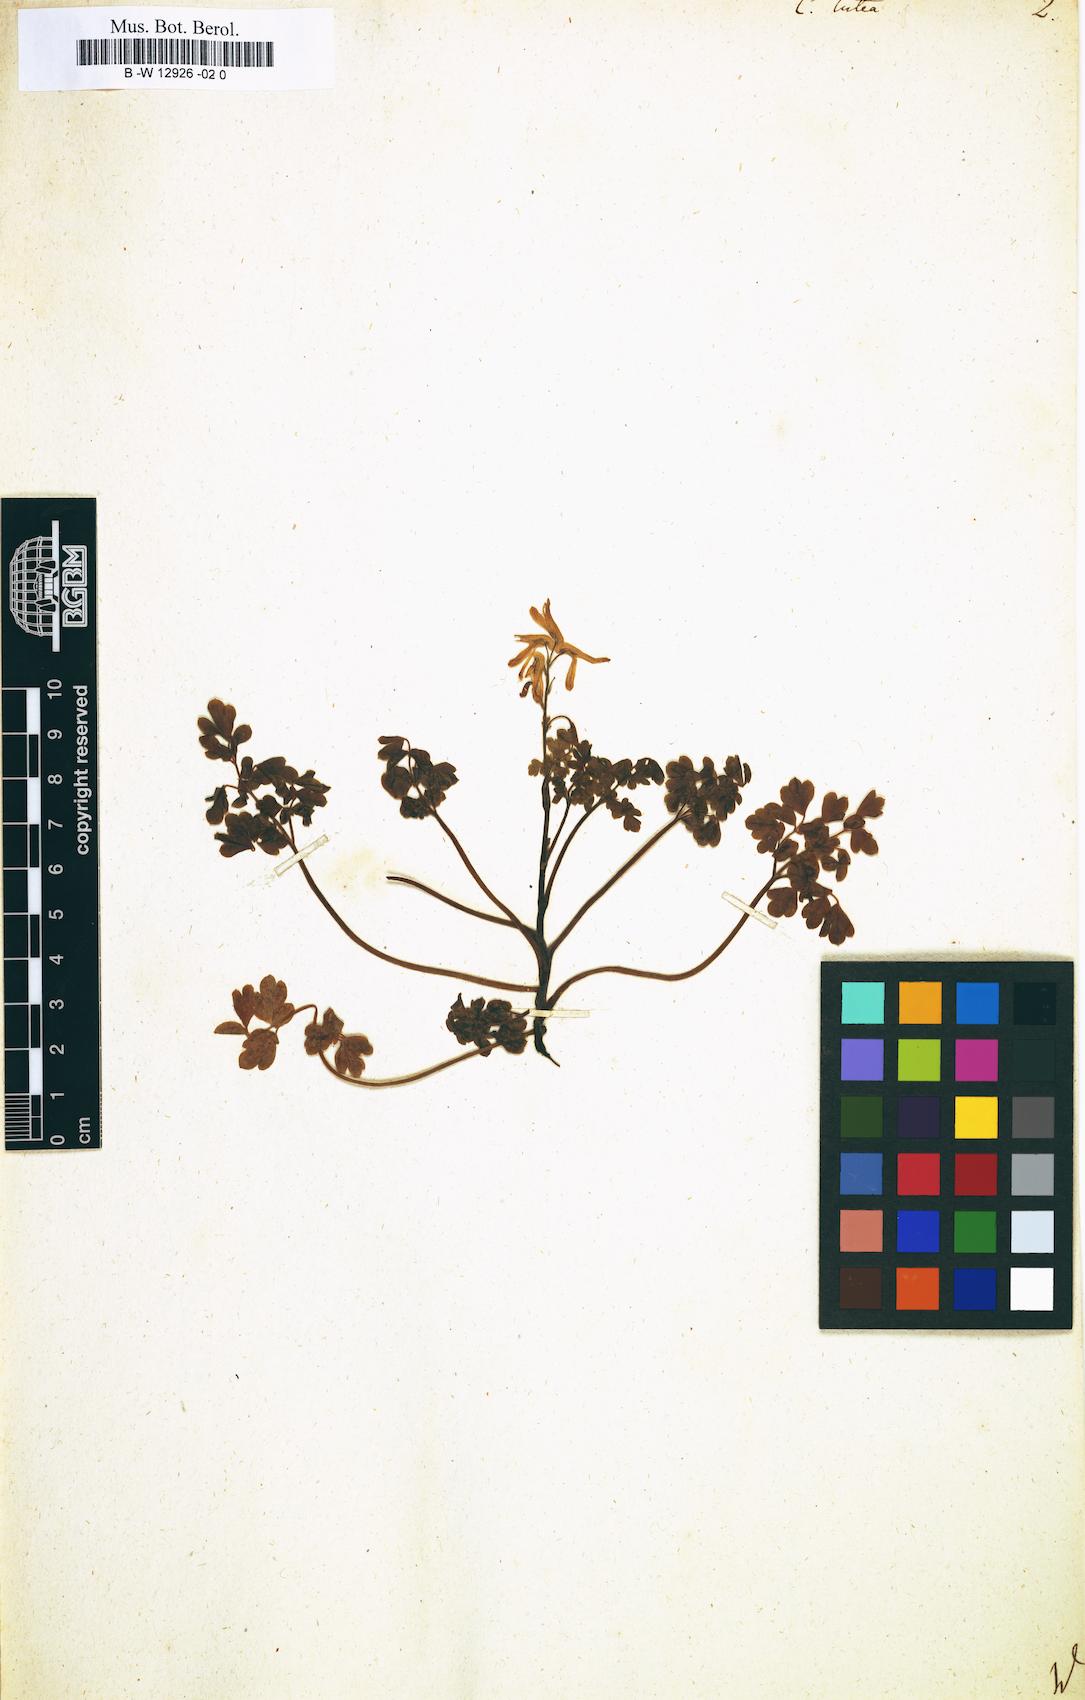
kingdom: Plantae
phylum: Tracheophyta
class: Magnoliopsida
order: Ranunculales
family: Papaveraceae
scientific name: Papaveraceae
